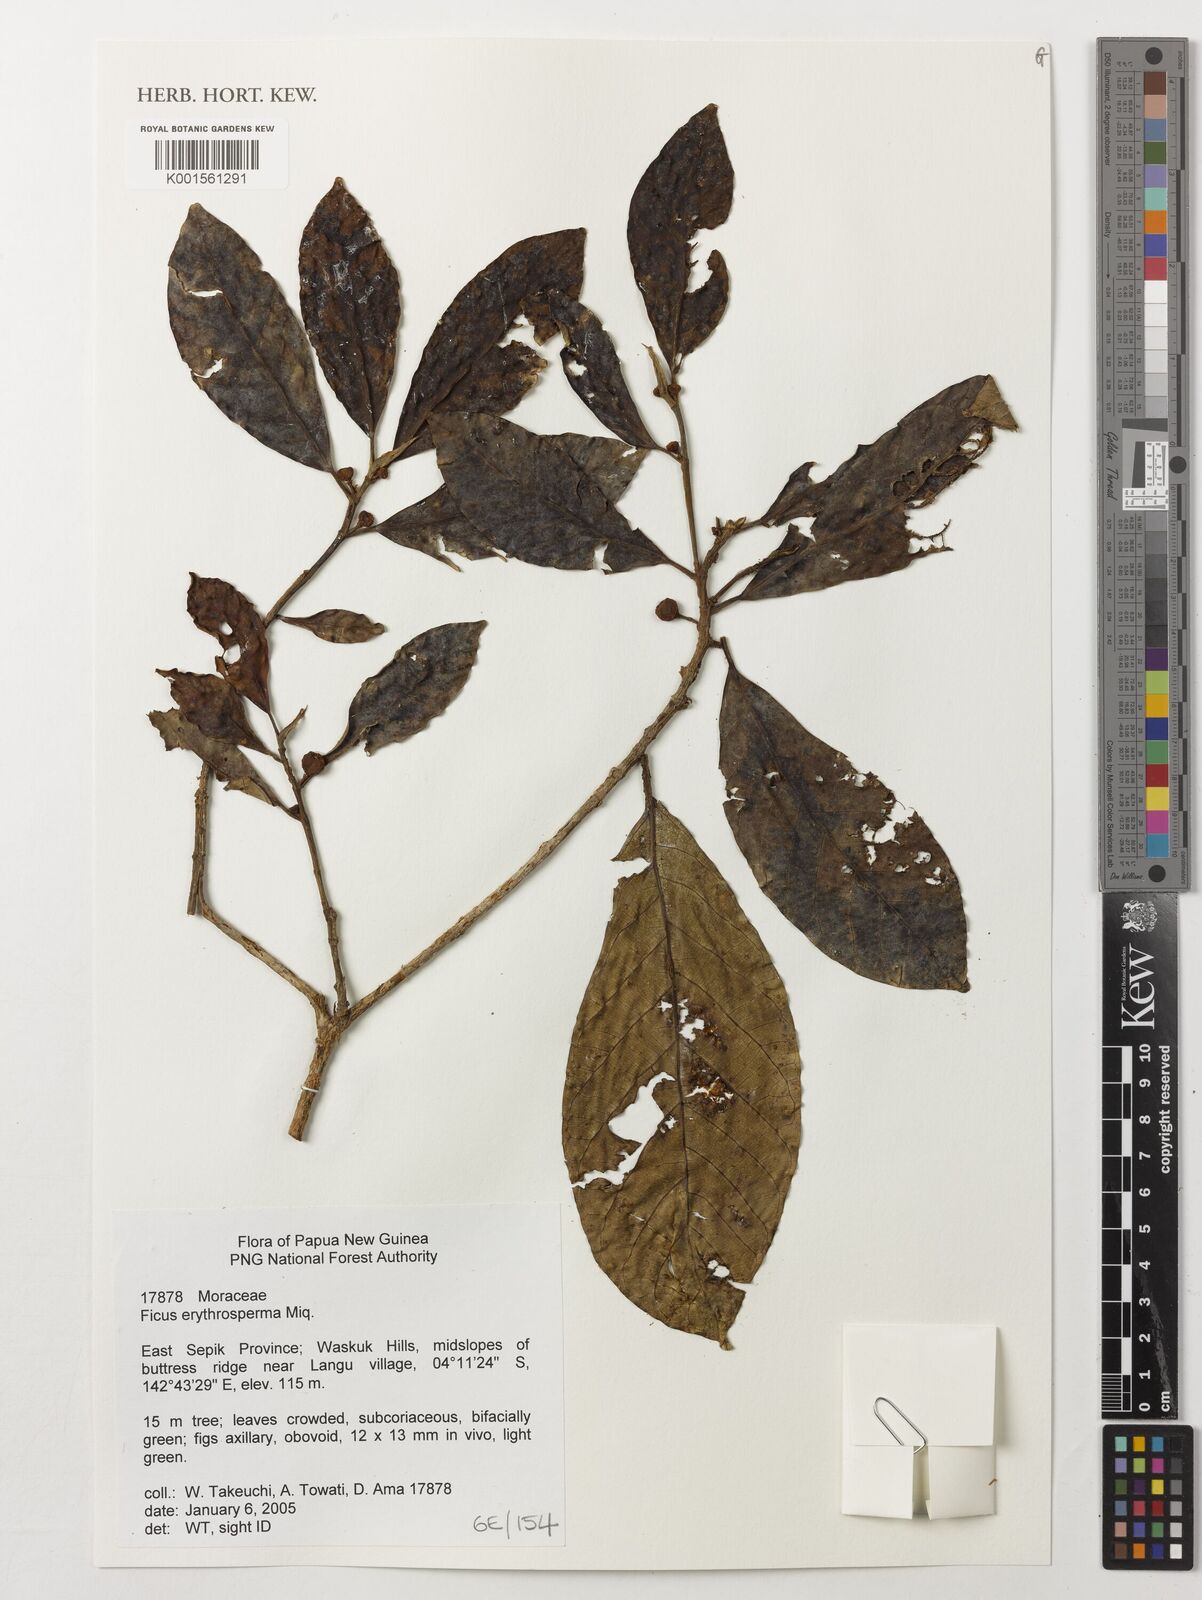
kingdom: Plantae
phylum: Tracheophyta
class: Magnoliopsida
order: Rosales
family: Moraceae
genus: Ficus
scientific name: Ficus erythrosperma
